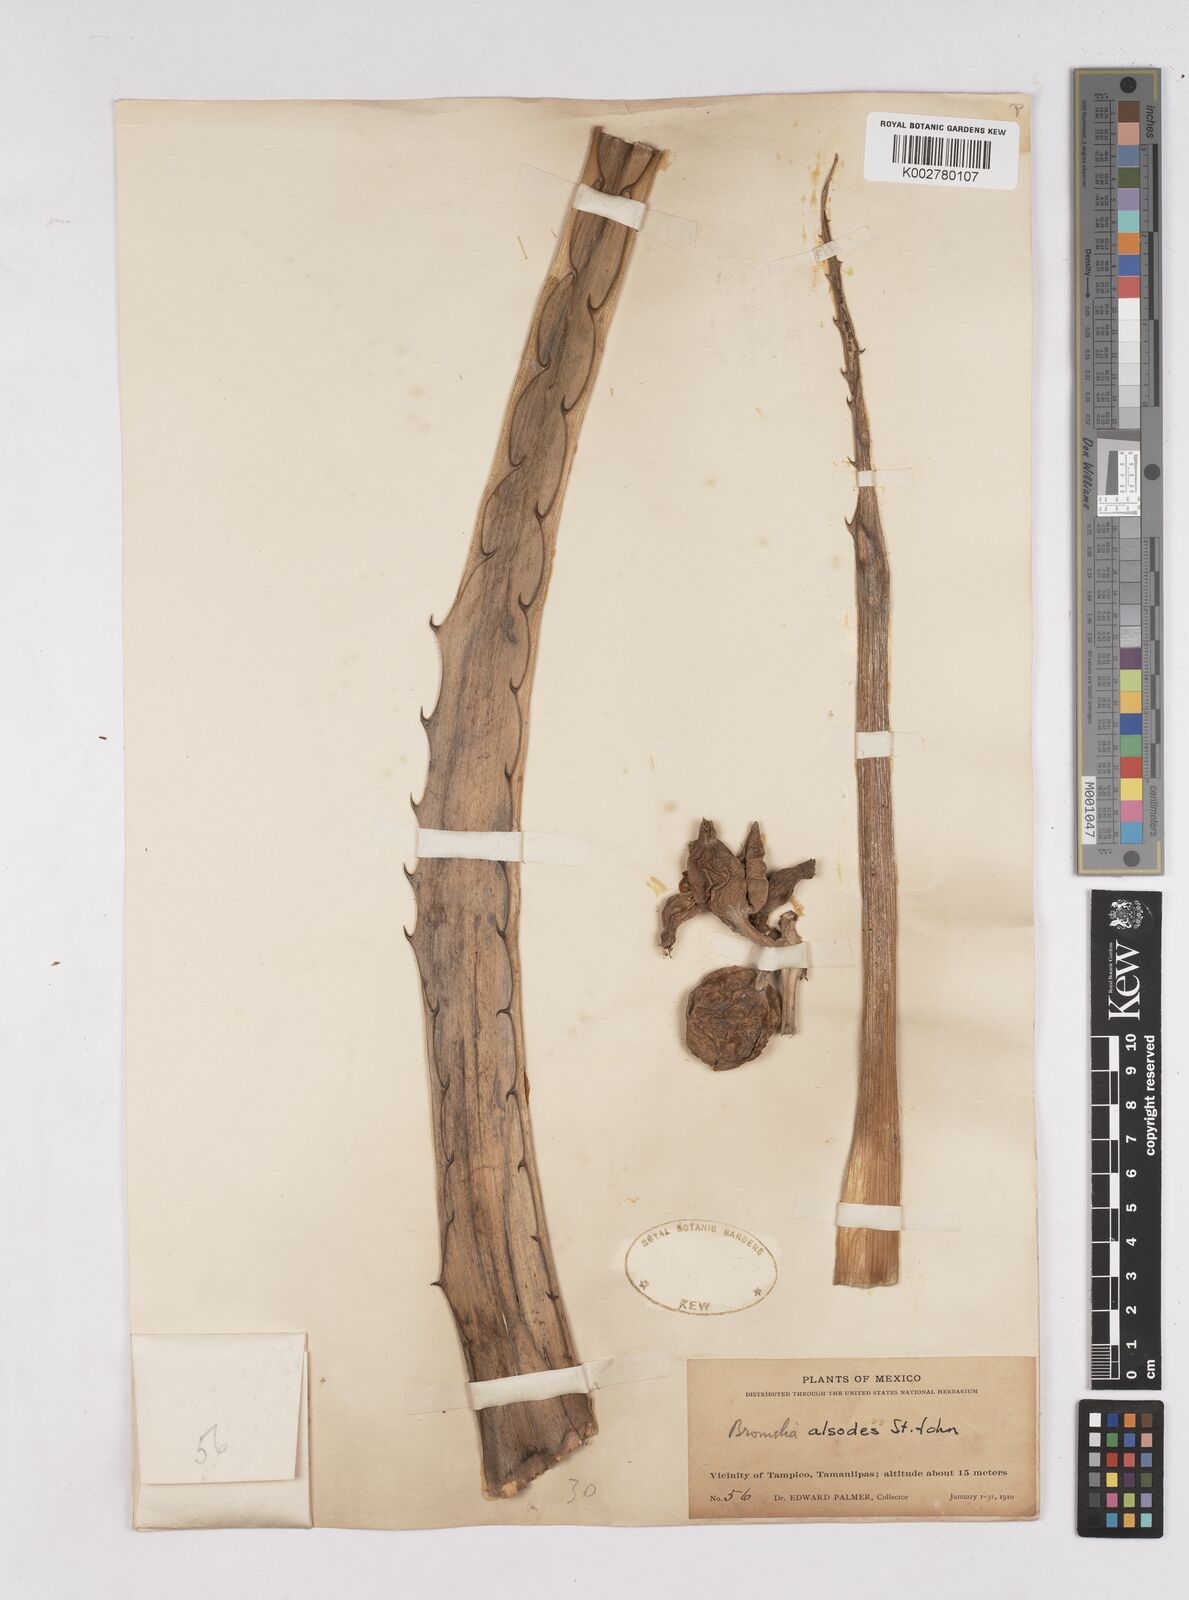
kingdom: Plantae
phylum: Tracheophyta
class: Liliopsida
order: Poales
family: Bromeliaceae
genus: Bromelia
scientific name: Bromelia alsodes
